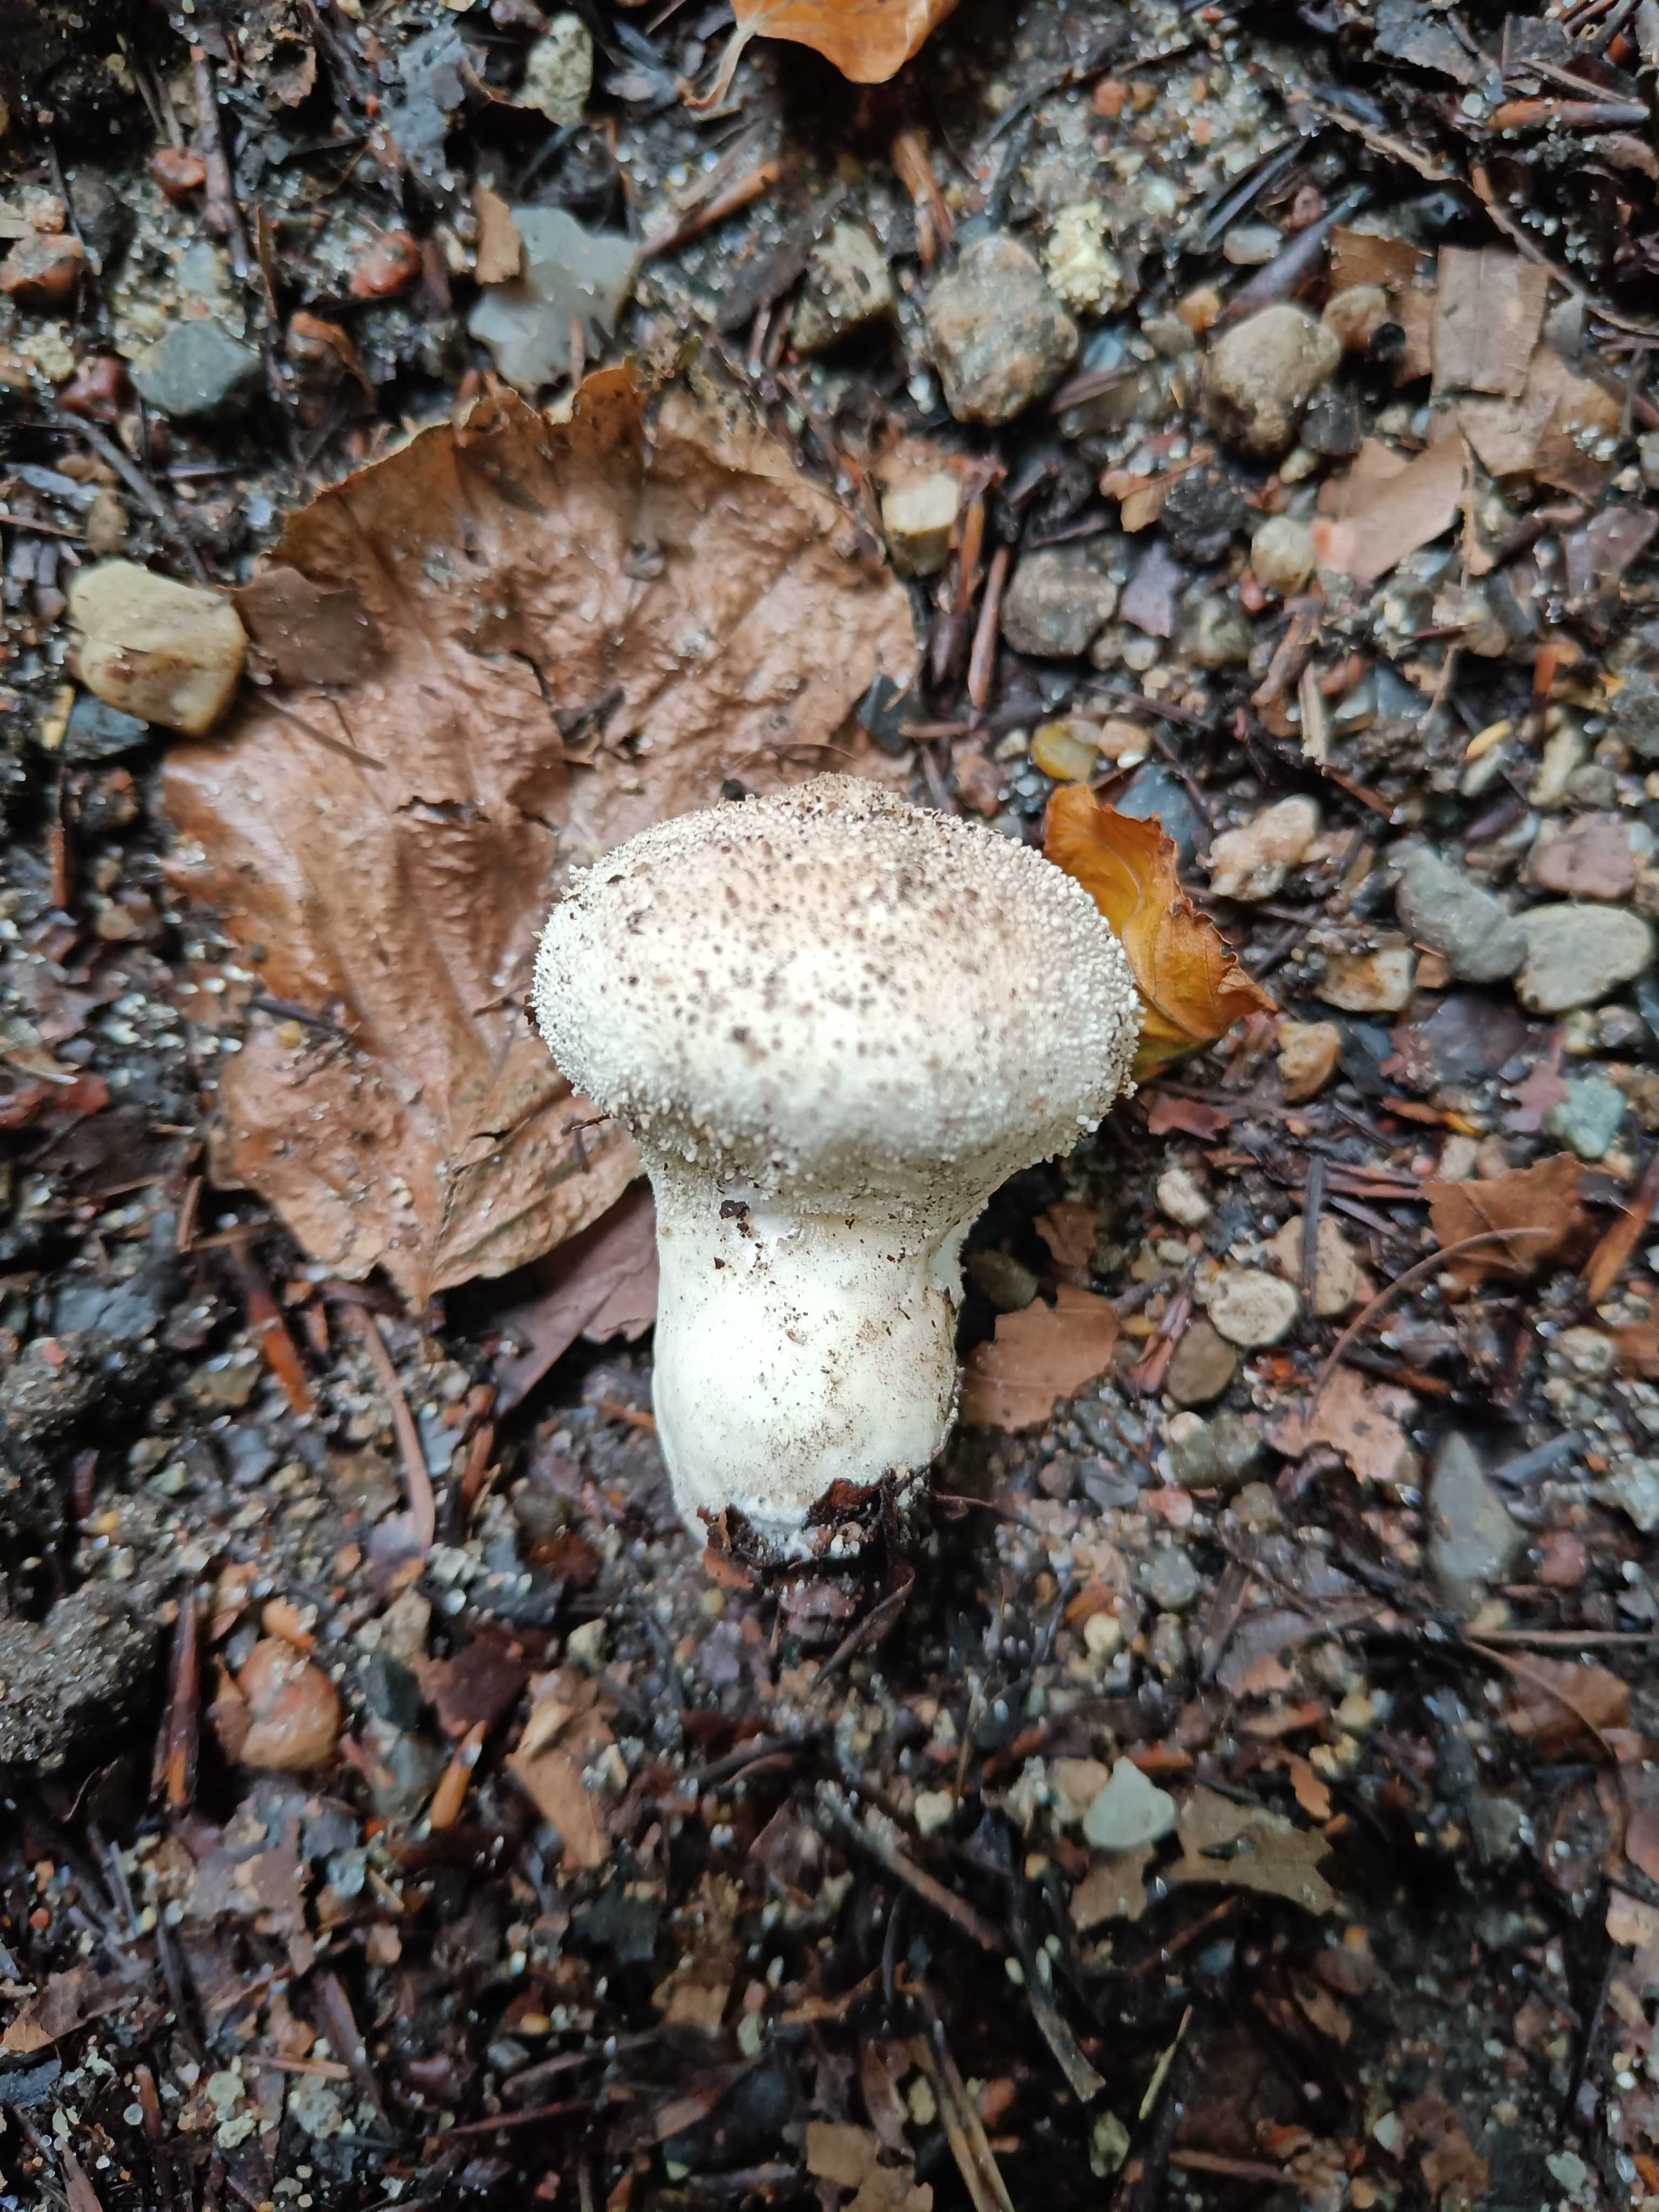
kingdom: Fungi
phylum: Basidiomycota
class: Agaricomycetes
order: Agaricales
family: Lycoperdaceae
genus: Lycoperdon
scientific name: Lycoperdon perlatum
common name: krystal-støvbold
